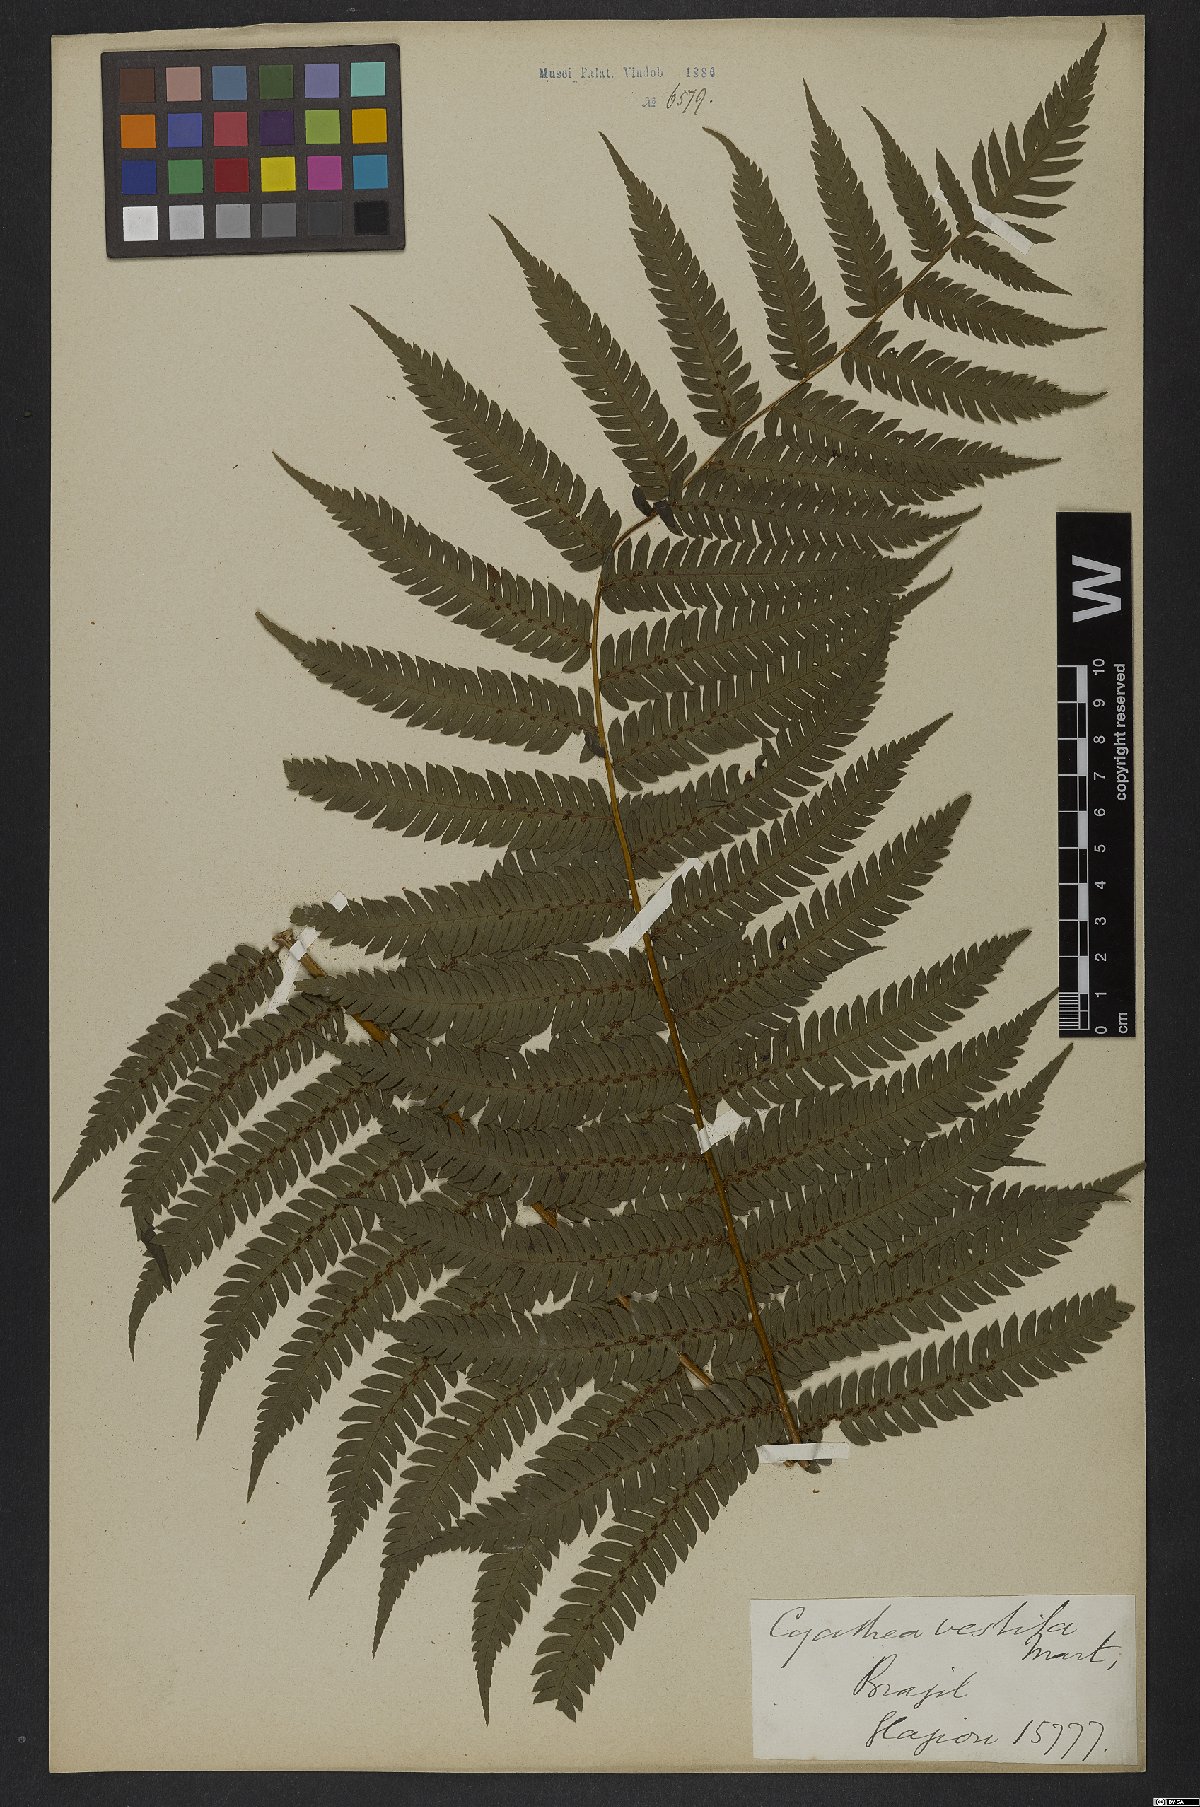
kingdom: Plantae
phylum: Tracheophyta
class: Polypodiopsida
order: Cyatheales
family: Cyatheaceae
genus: Cyathea
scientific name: Cyathea delgadii
